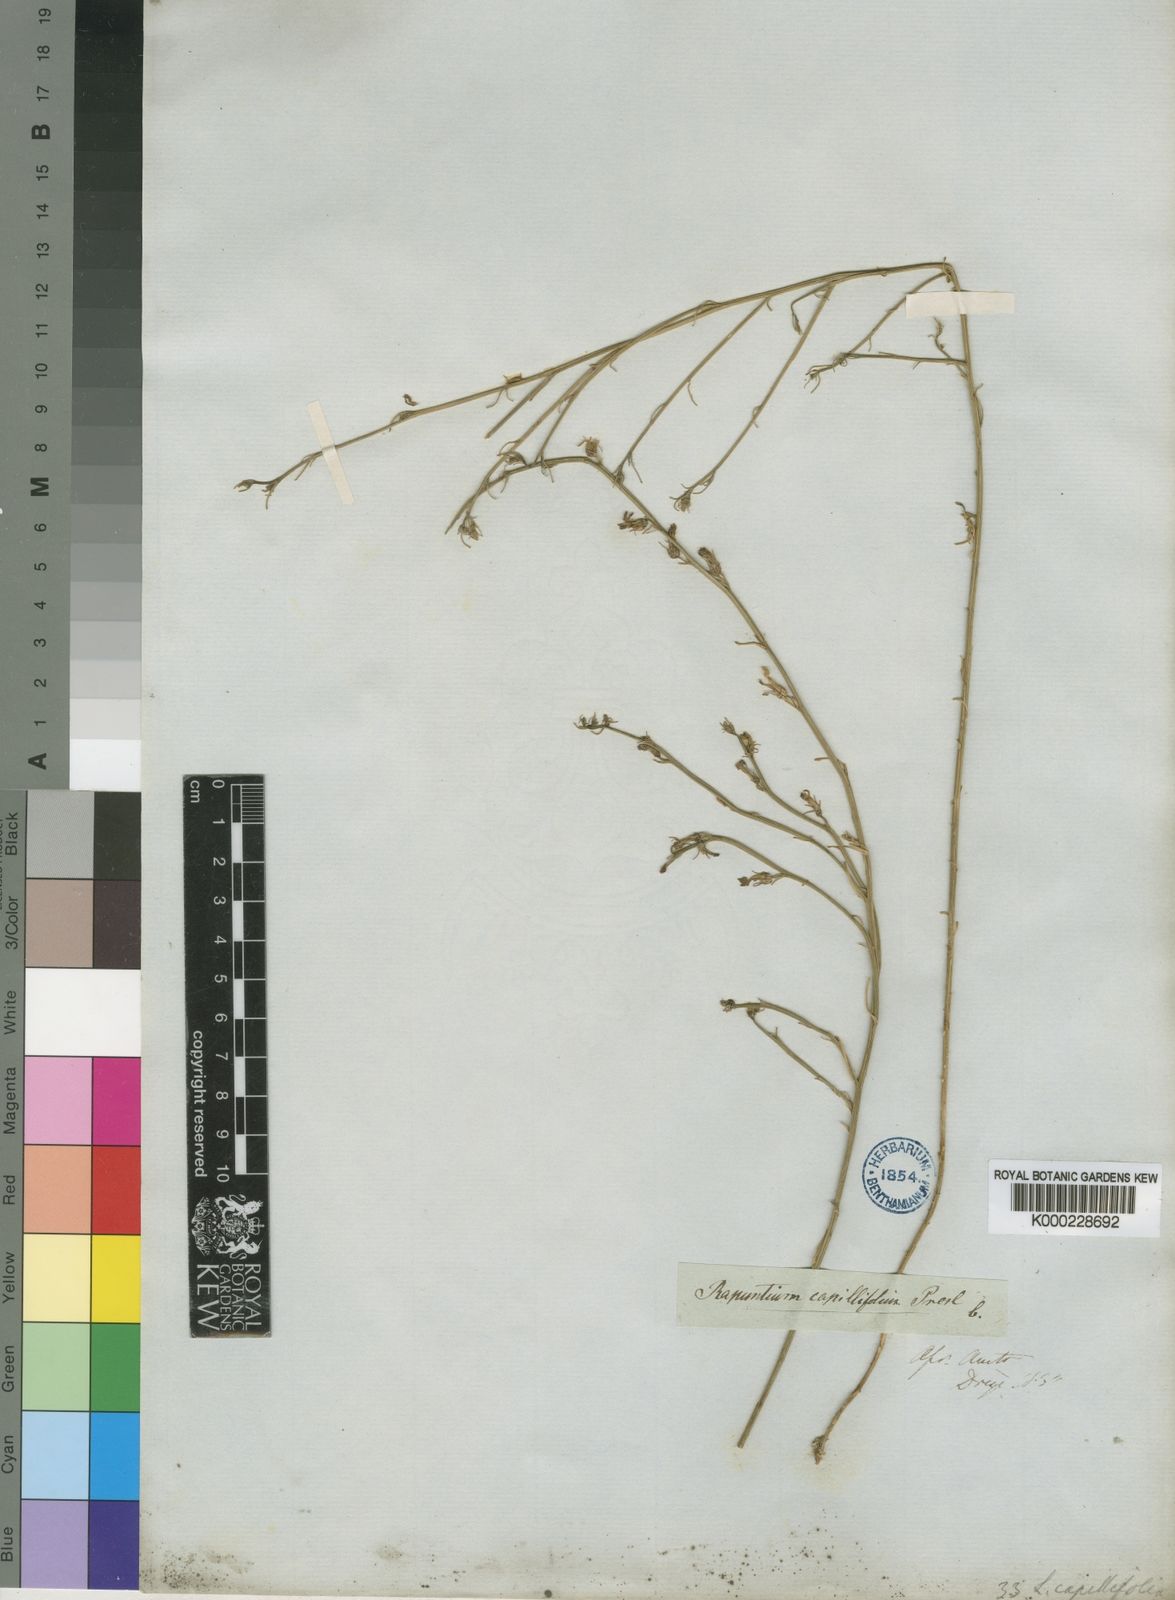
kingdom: Plantae
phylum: Tracheophyta
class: Magnoliopsida
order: Asterales
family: Campanulaceae
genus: Lobelia
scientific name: Lobelia capillifolia
